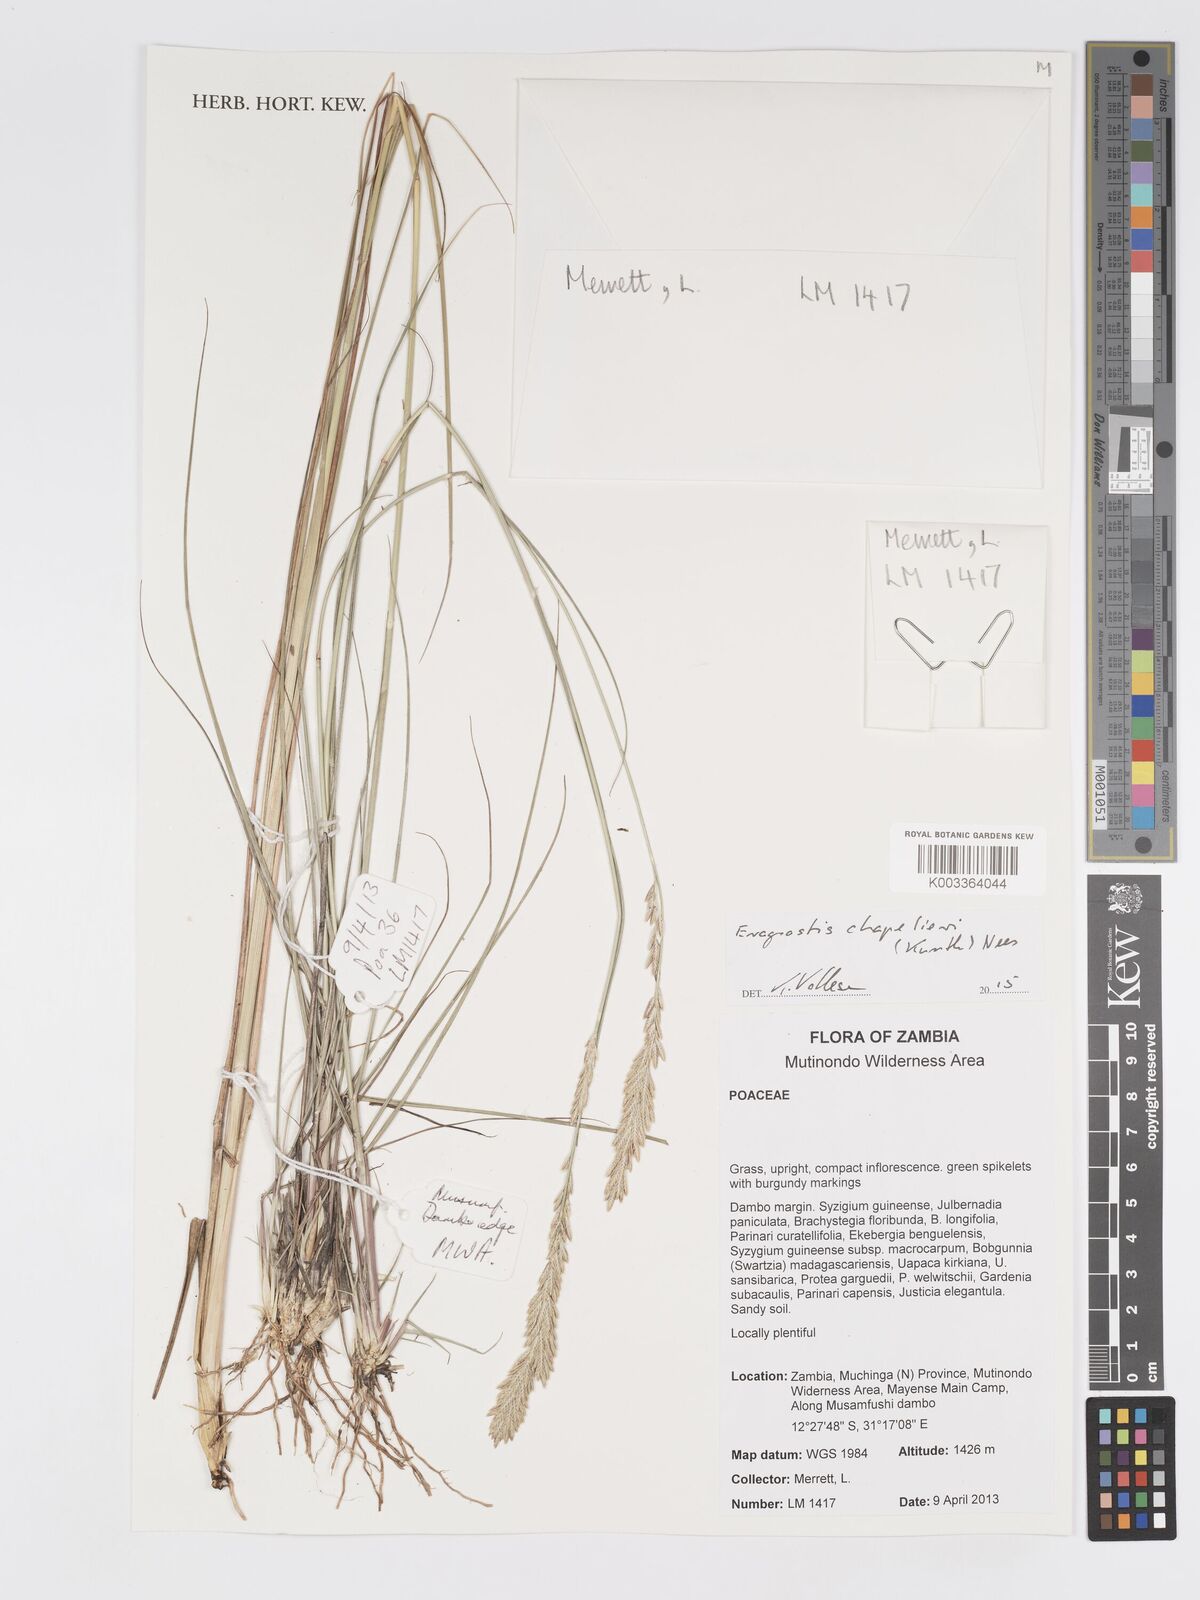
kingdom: Plantae
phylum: Tracheophyta
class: Liliopsida
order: Poales
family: Poaceae
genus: Eragrostis
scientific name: Eragrostis chapelieri
